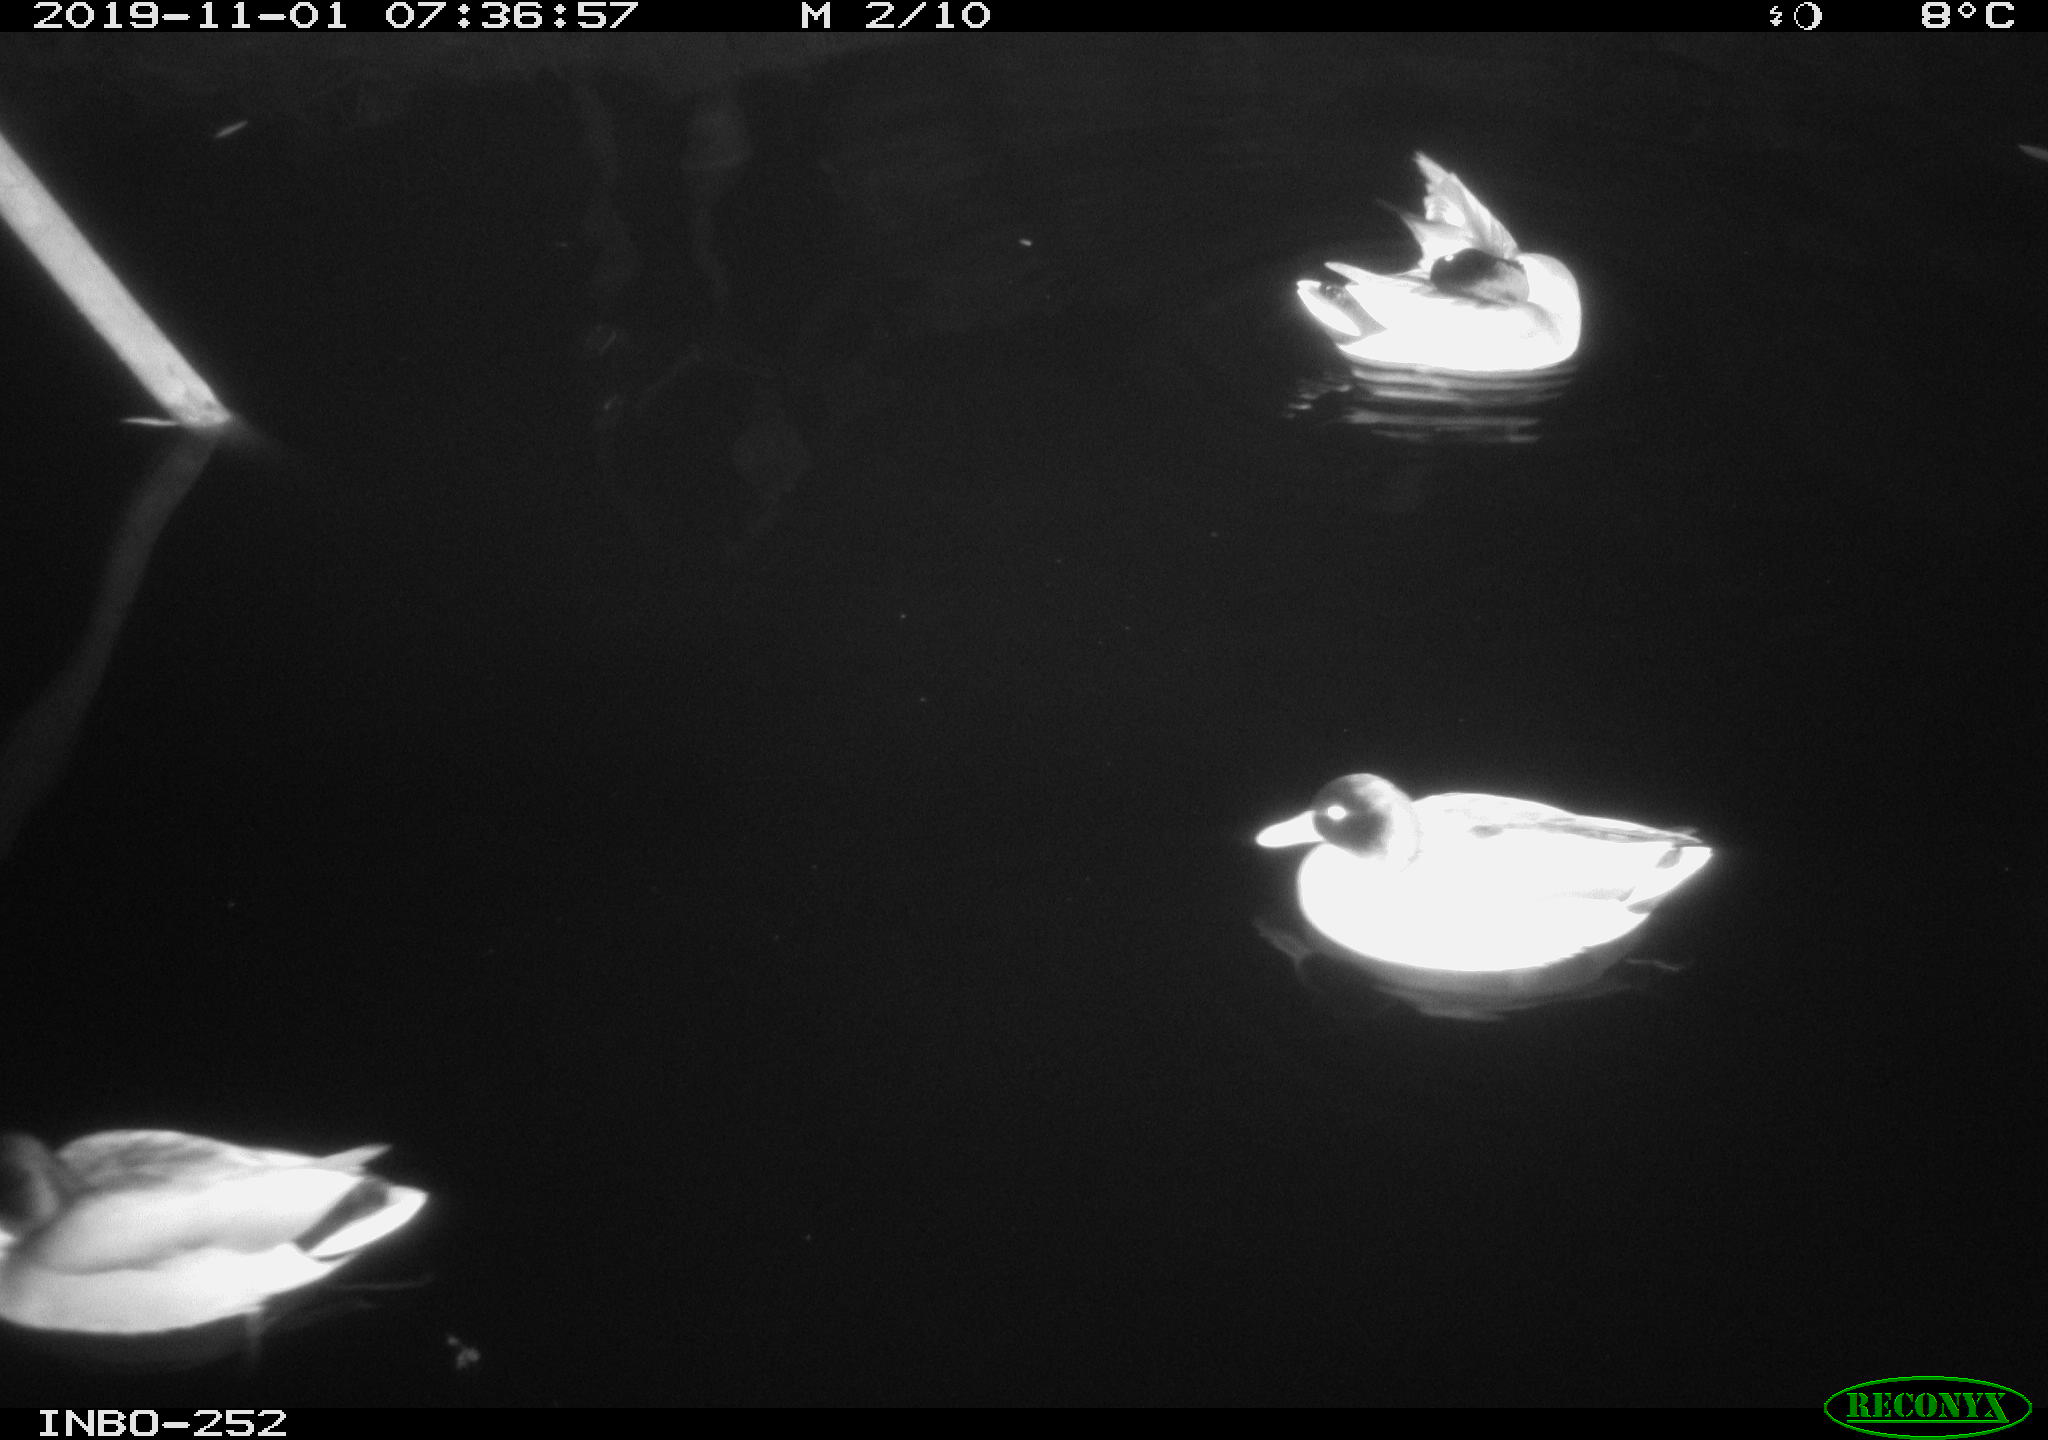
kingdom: Animalia
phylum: Chordata
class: Aves
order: Anseriformes
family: Anatidae
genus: Anas
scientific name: Anas platyrhynchos
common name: Mallard
